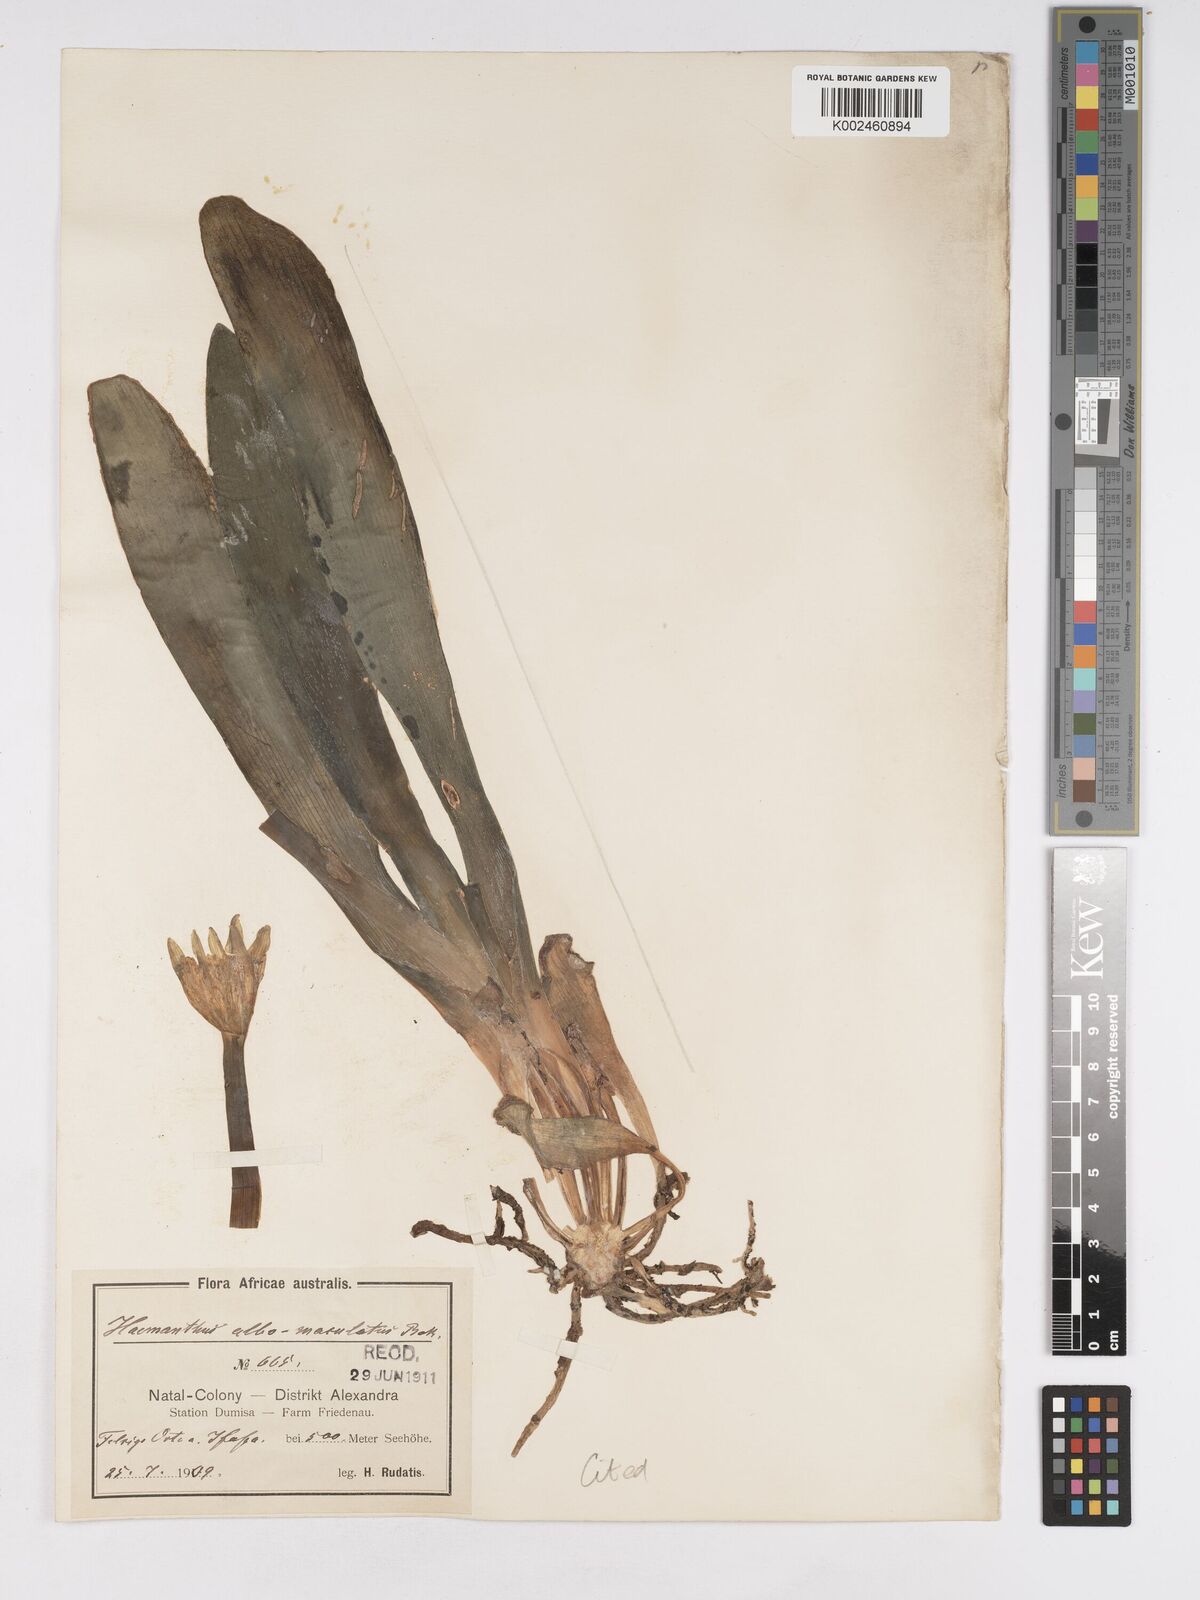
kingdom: Plantae
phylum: Tracheophyta
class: Liliopsida
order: Asparagales
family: Amaryllidaceae
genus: Haemanthus
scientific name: Haemanthus albiflos
